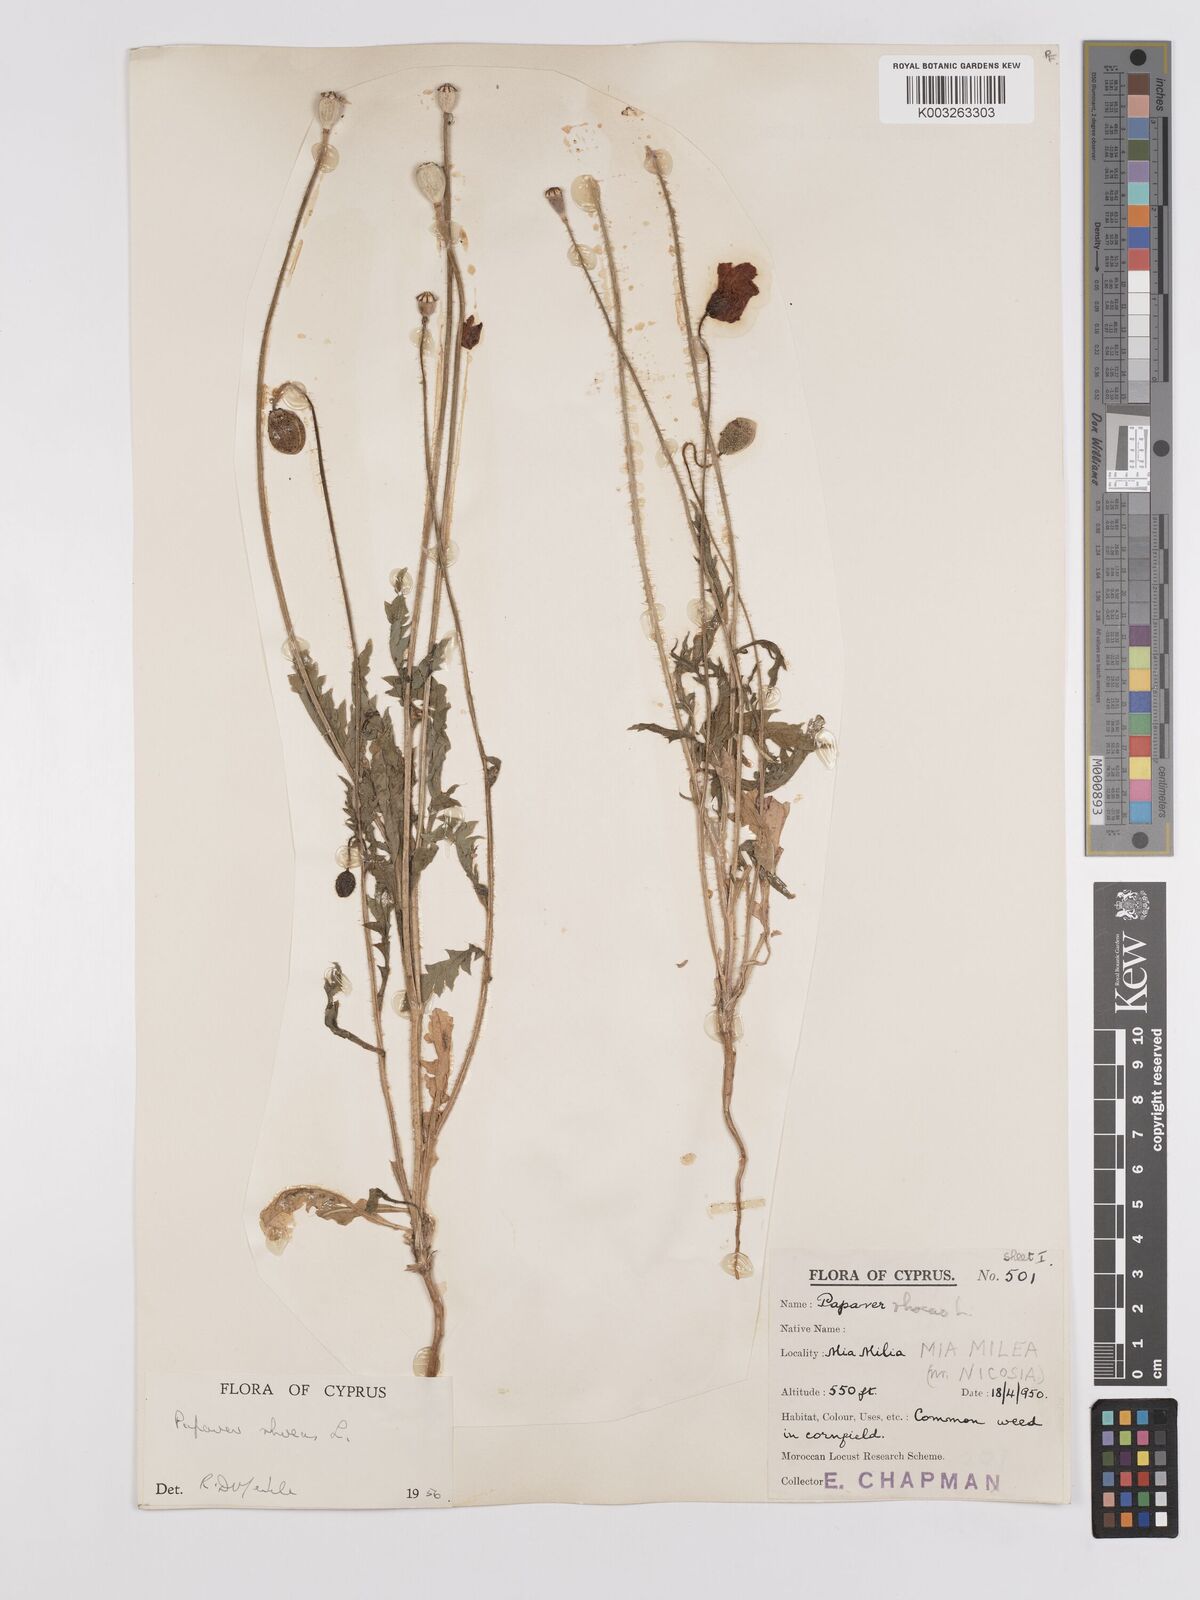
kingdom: Plantae
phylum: Tracheophyta
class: Magnoliopsida
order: Ranunculales
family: Papaveraceae
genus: Papaver
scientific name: Papaver rhoeas
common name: Corn poppy
